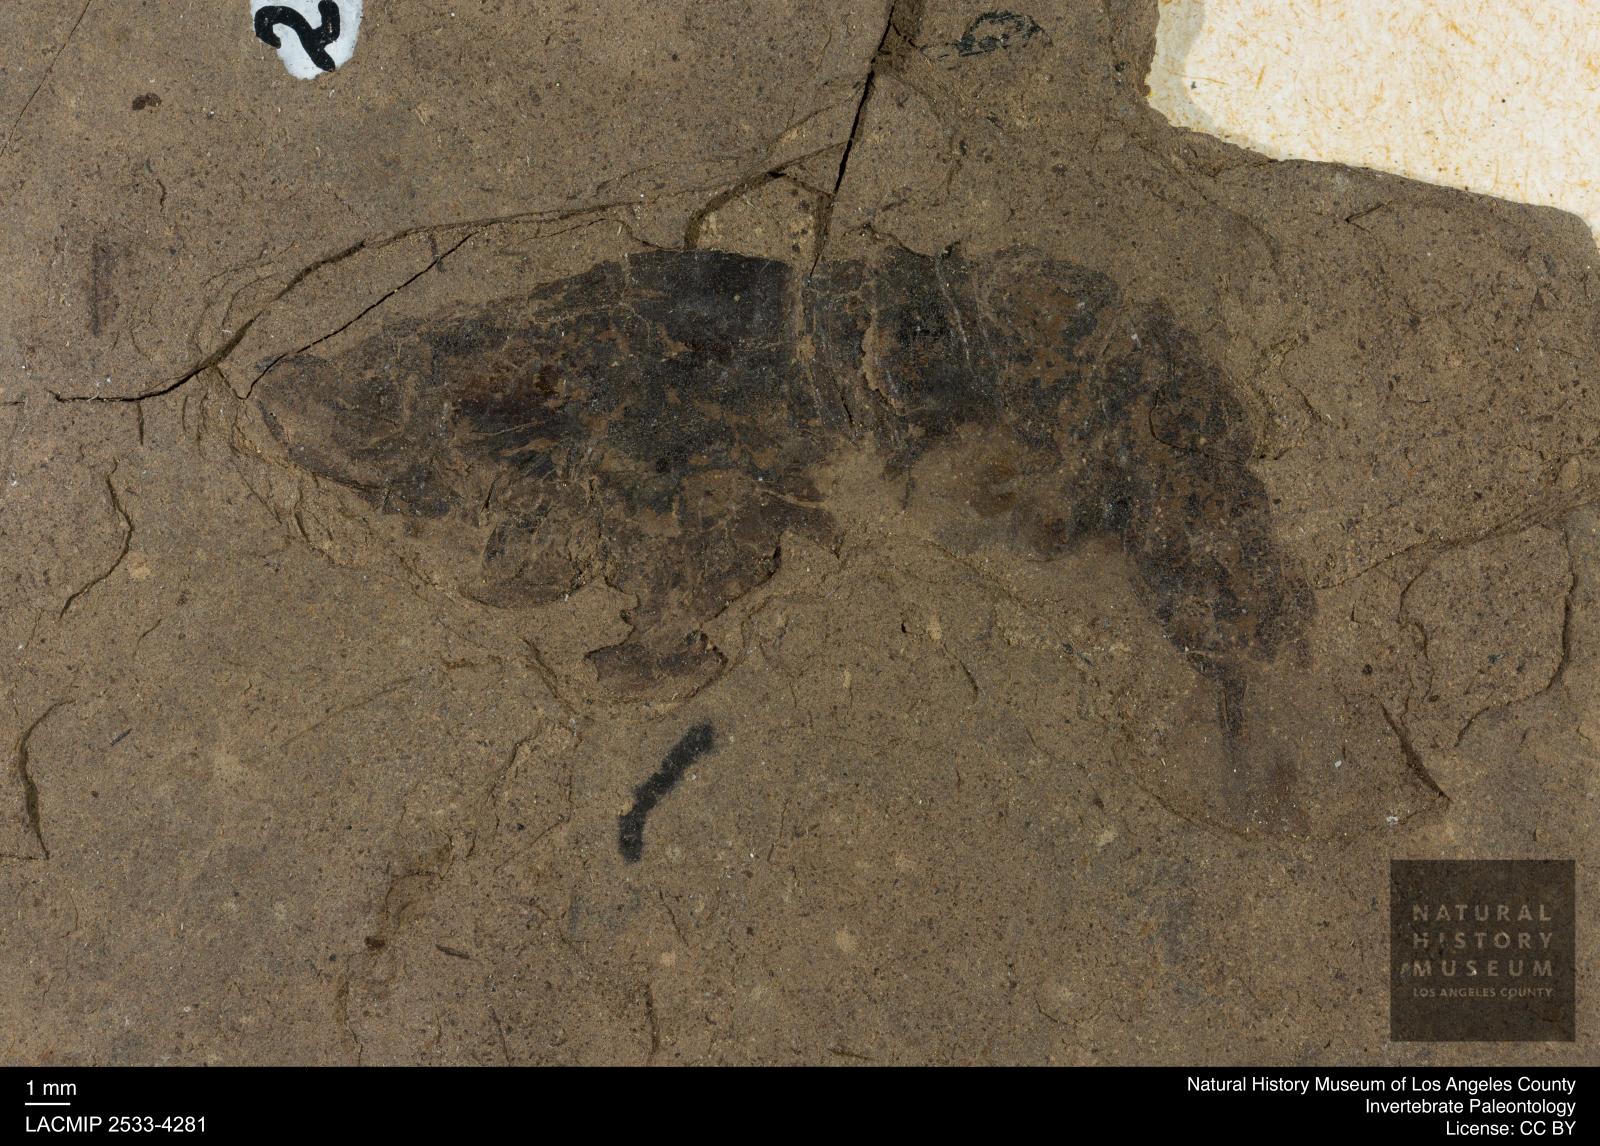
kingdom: Animalia
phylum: Arthropoda
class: Malacostraca
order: Decapoda
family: Palaemonidae
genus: Micropsalis
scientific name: Micropsalis papyracea
